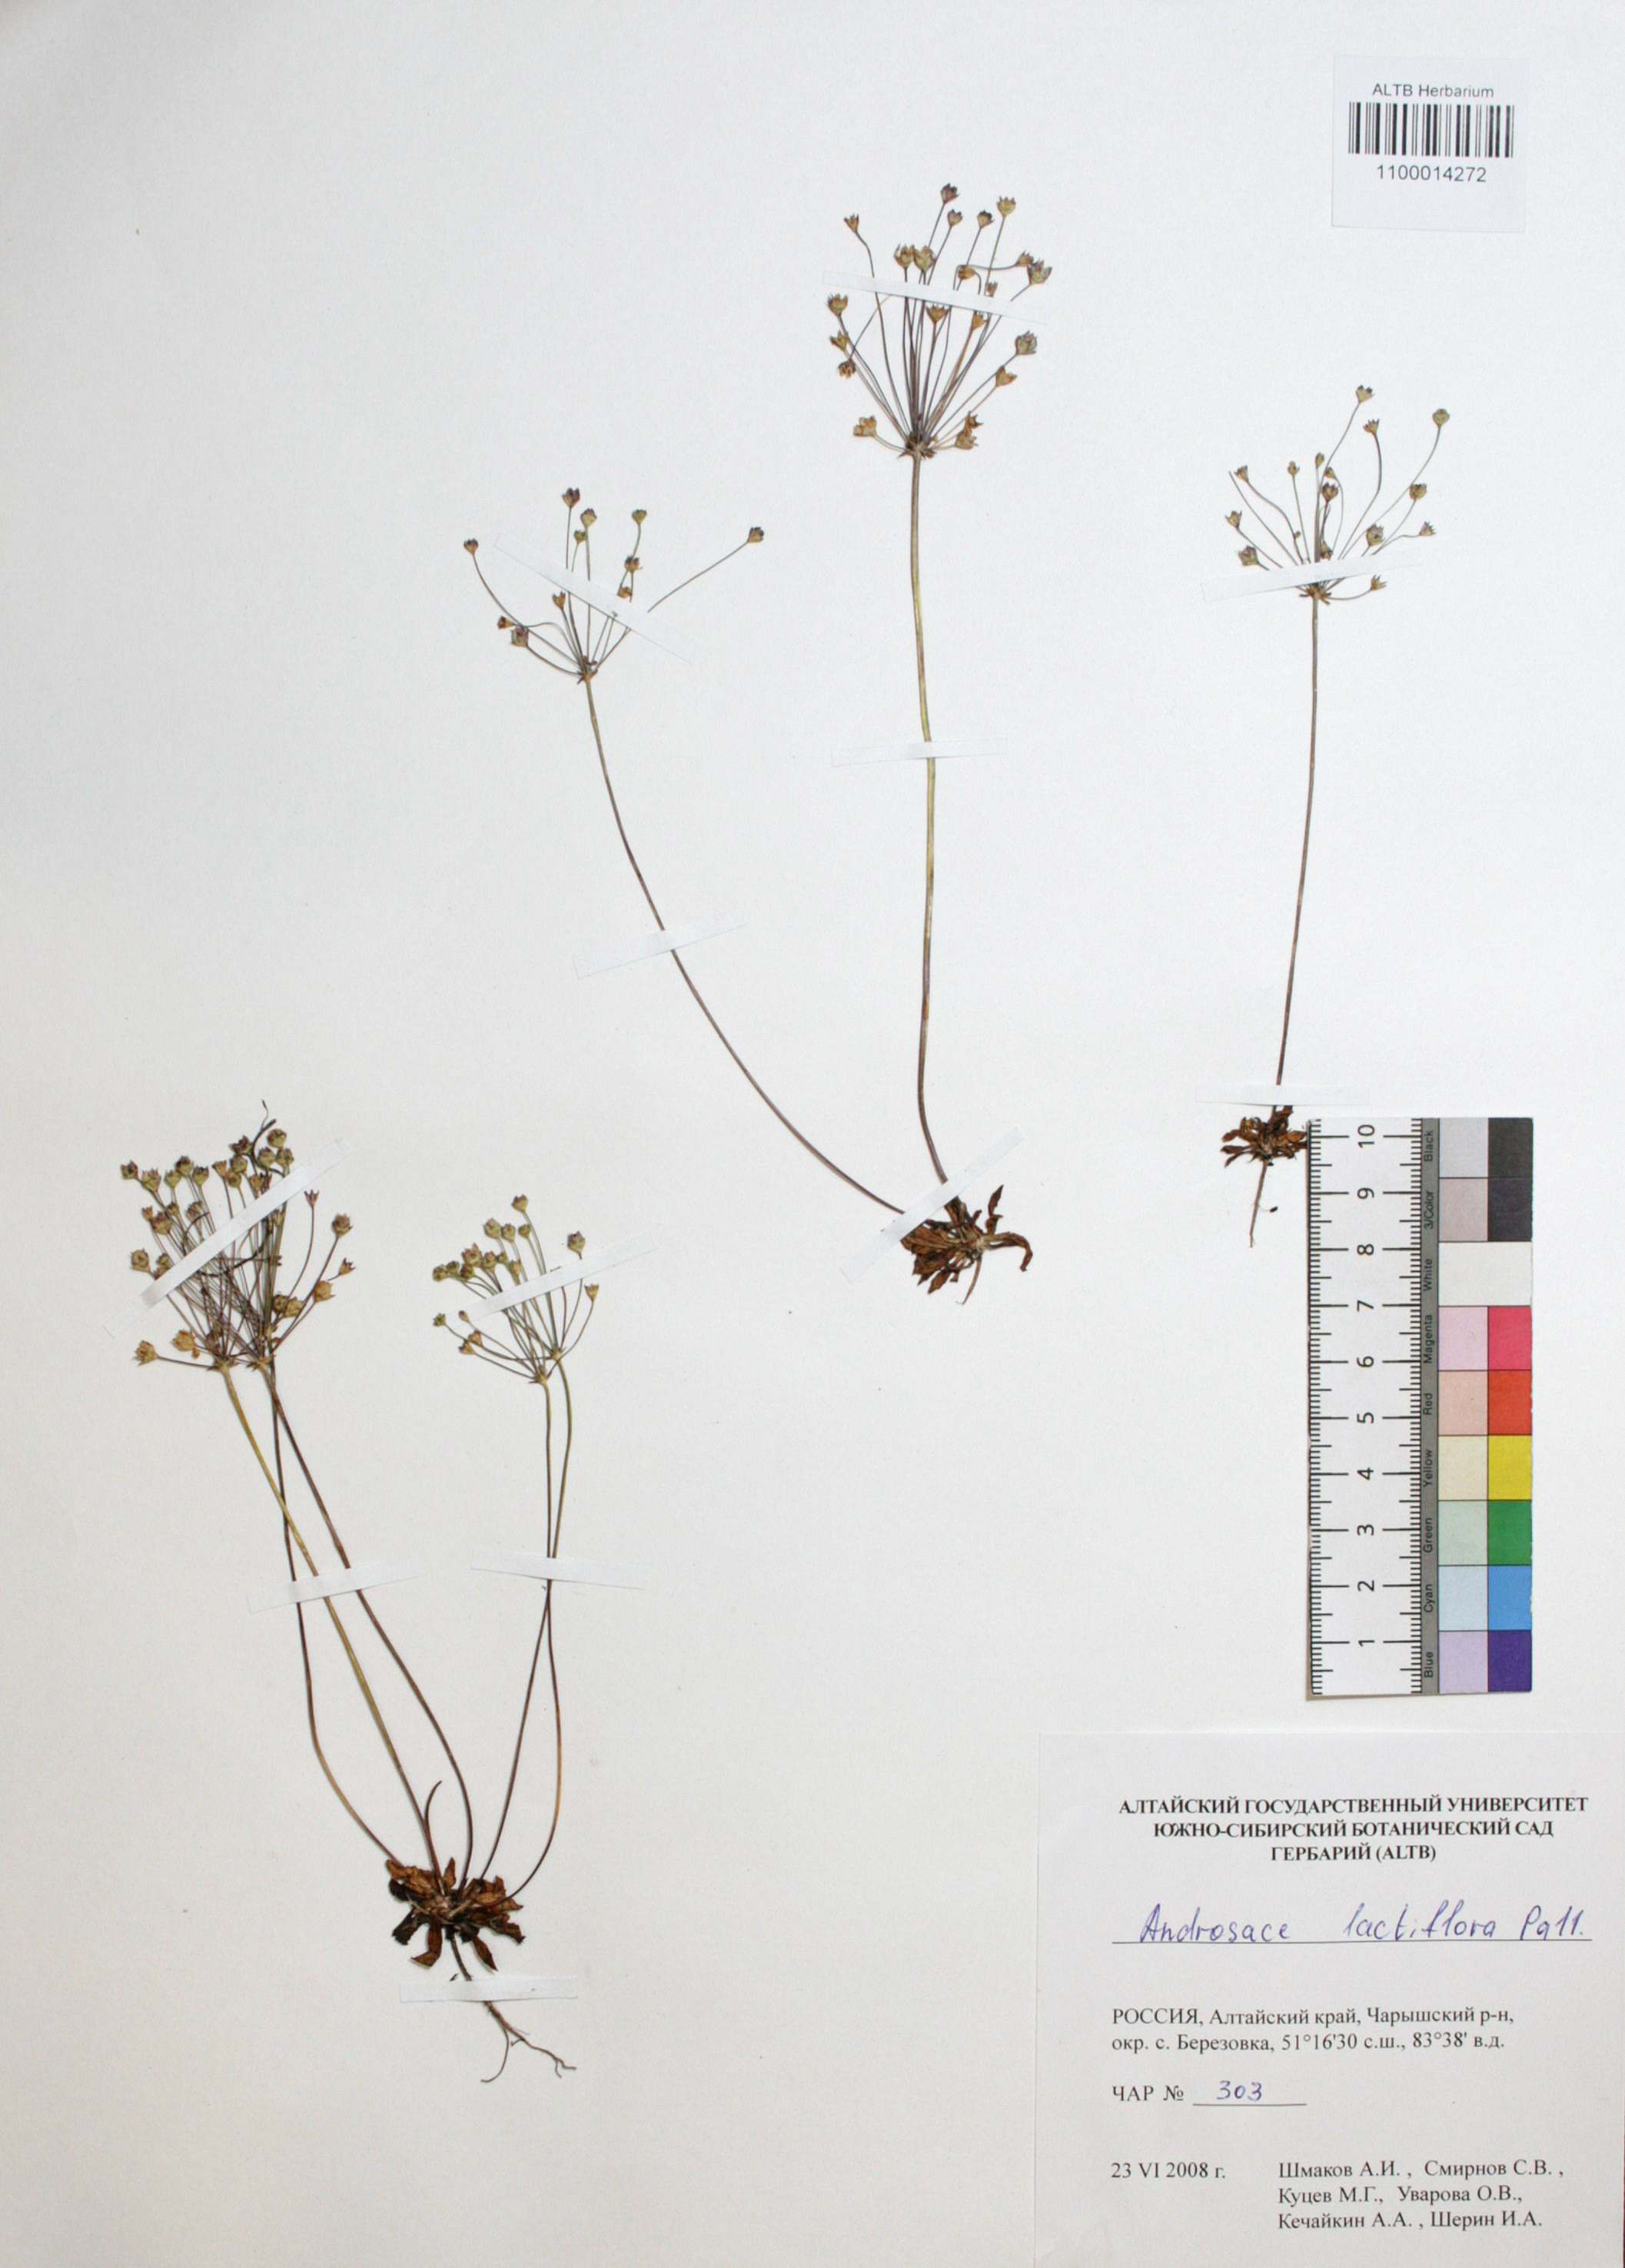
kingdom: Plantae
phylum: Tracheophyta
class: Magnoliopsida
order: Ericales
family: Primulaceae
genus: Androsace
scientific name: Androsace lactiflora
